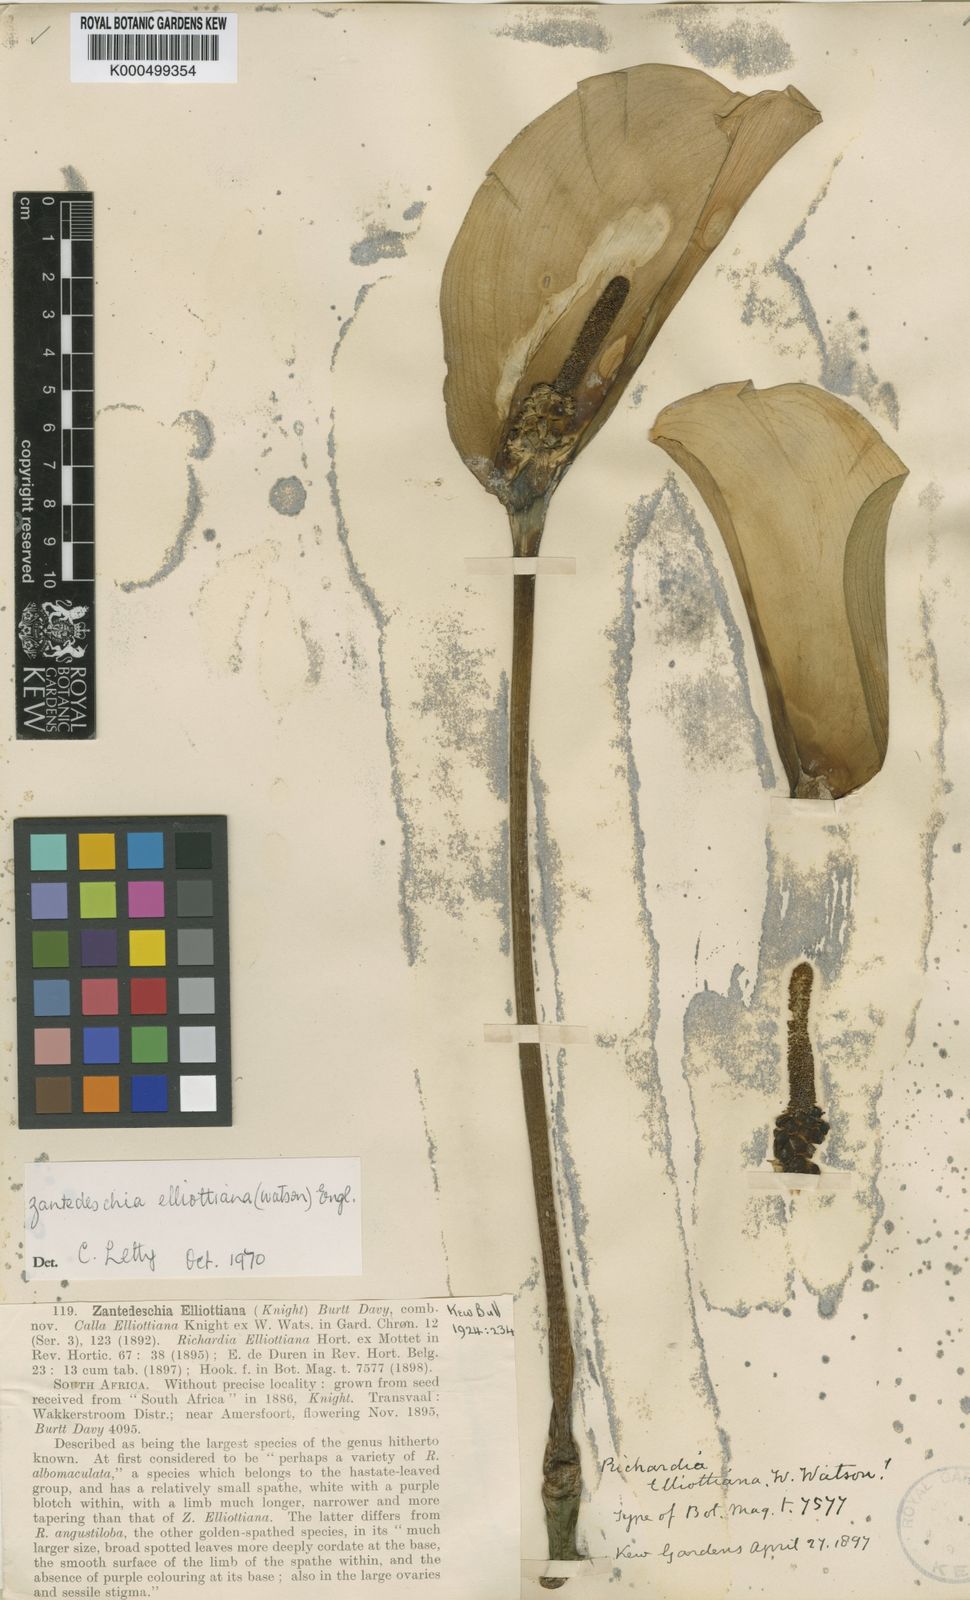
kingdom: Plantae
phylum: Tracheophyta
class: Liliopsida
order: Alismatales
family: Araceae
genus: Zantedeschia
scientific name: Zantedeschia elliottiana
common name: Yellow calla
